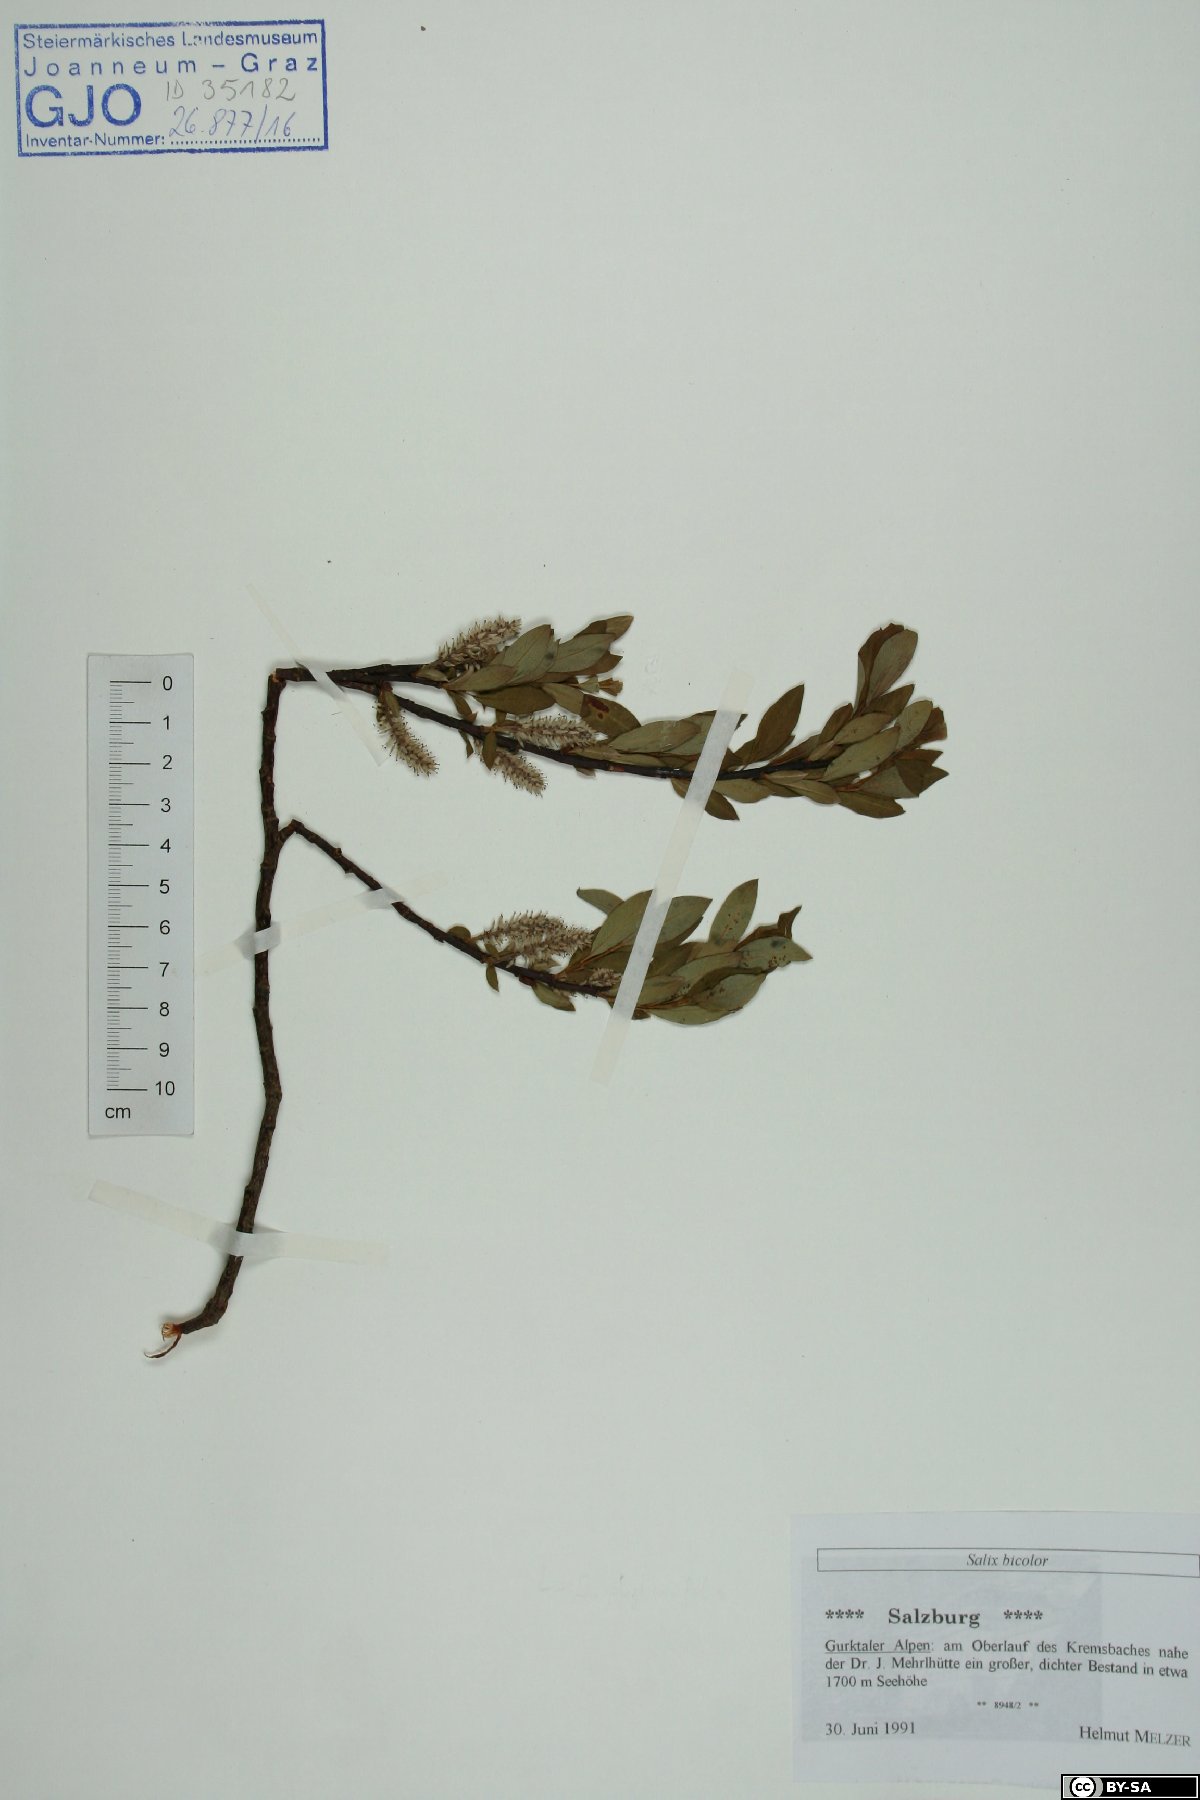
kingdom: Plantae
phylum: Tracheophyta
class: Magnoliopsida
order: Malpighiales
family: Salicaceae
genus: Salix
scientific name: Salix bicolor
